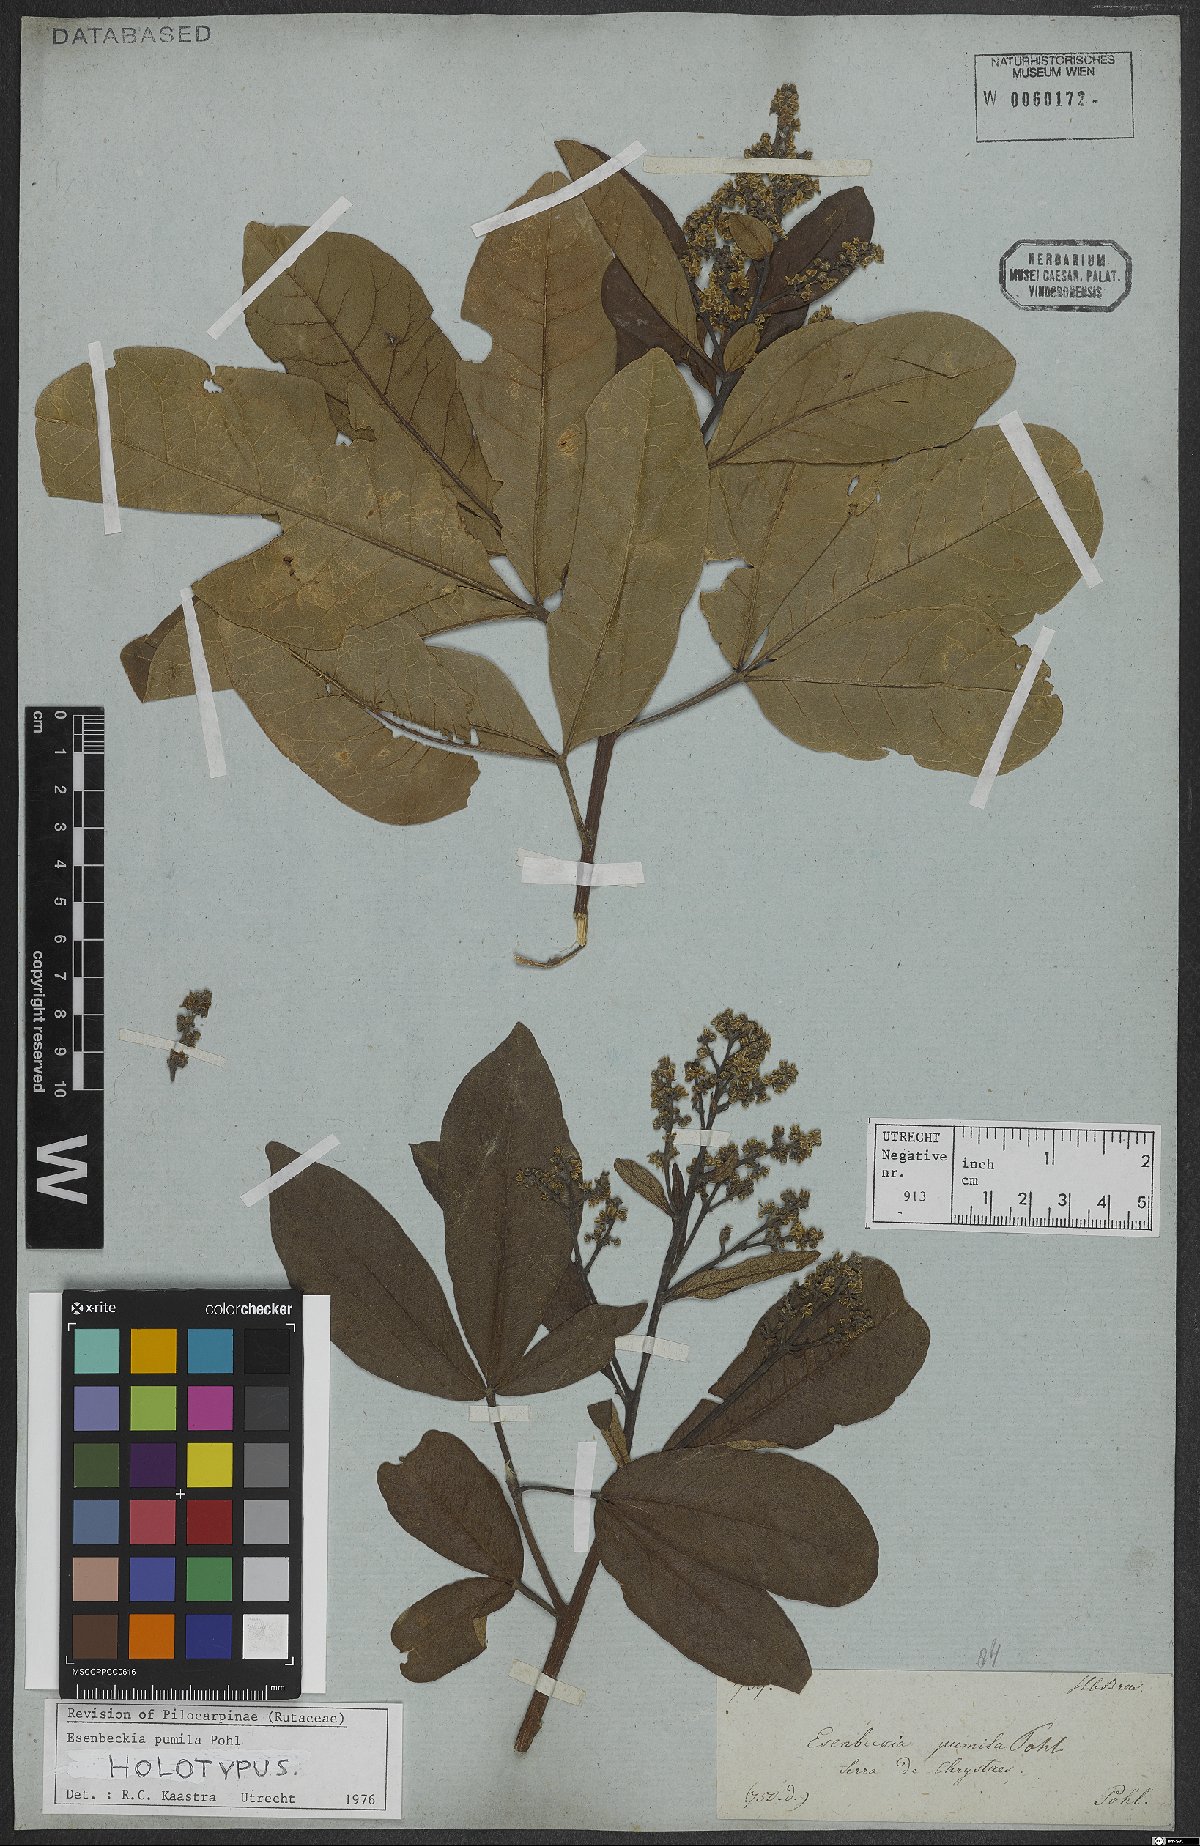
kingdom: Plantae
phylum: Tracheophyta
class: Magnoliopsida
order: Sapindales
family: Rutaceae
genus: Esenbeckia
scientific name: Esenbeckia pumila
